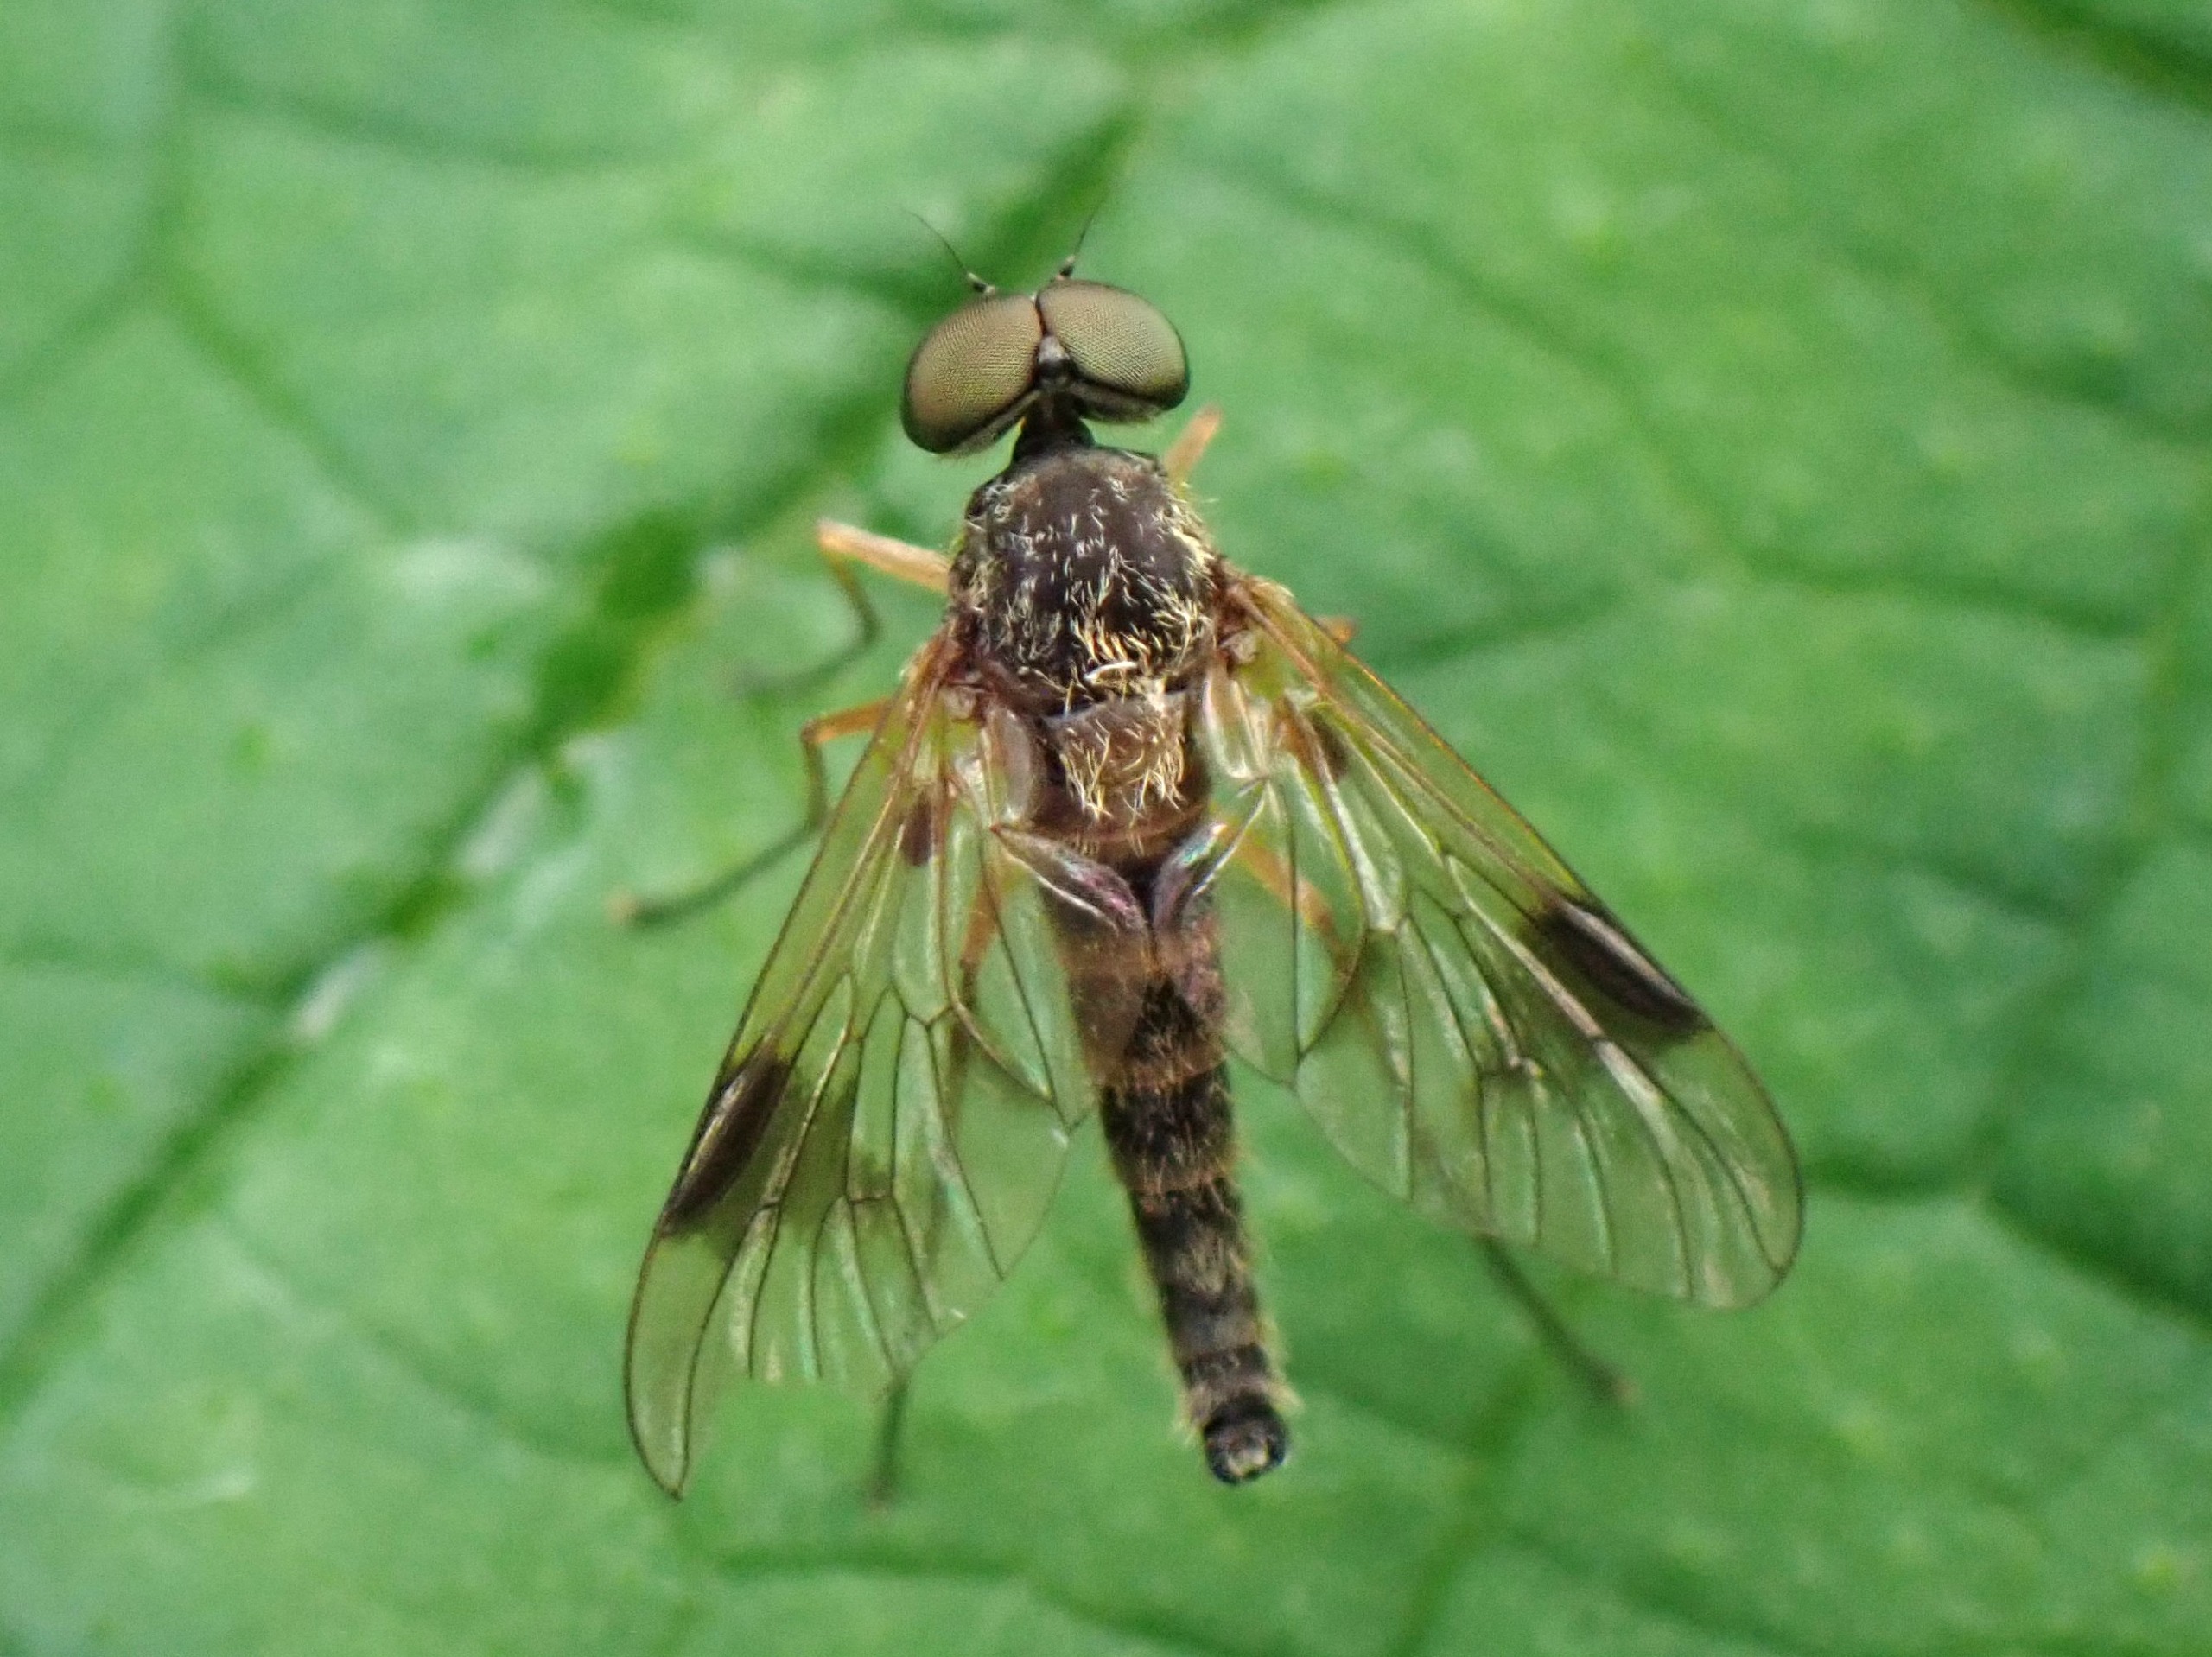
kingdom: Animalia
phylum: Arthropoda
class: Insecta
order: Diptera
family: Rhagionidae
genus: Chrysopilus
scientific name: Chrysopilus nubecula
